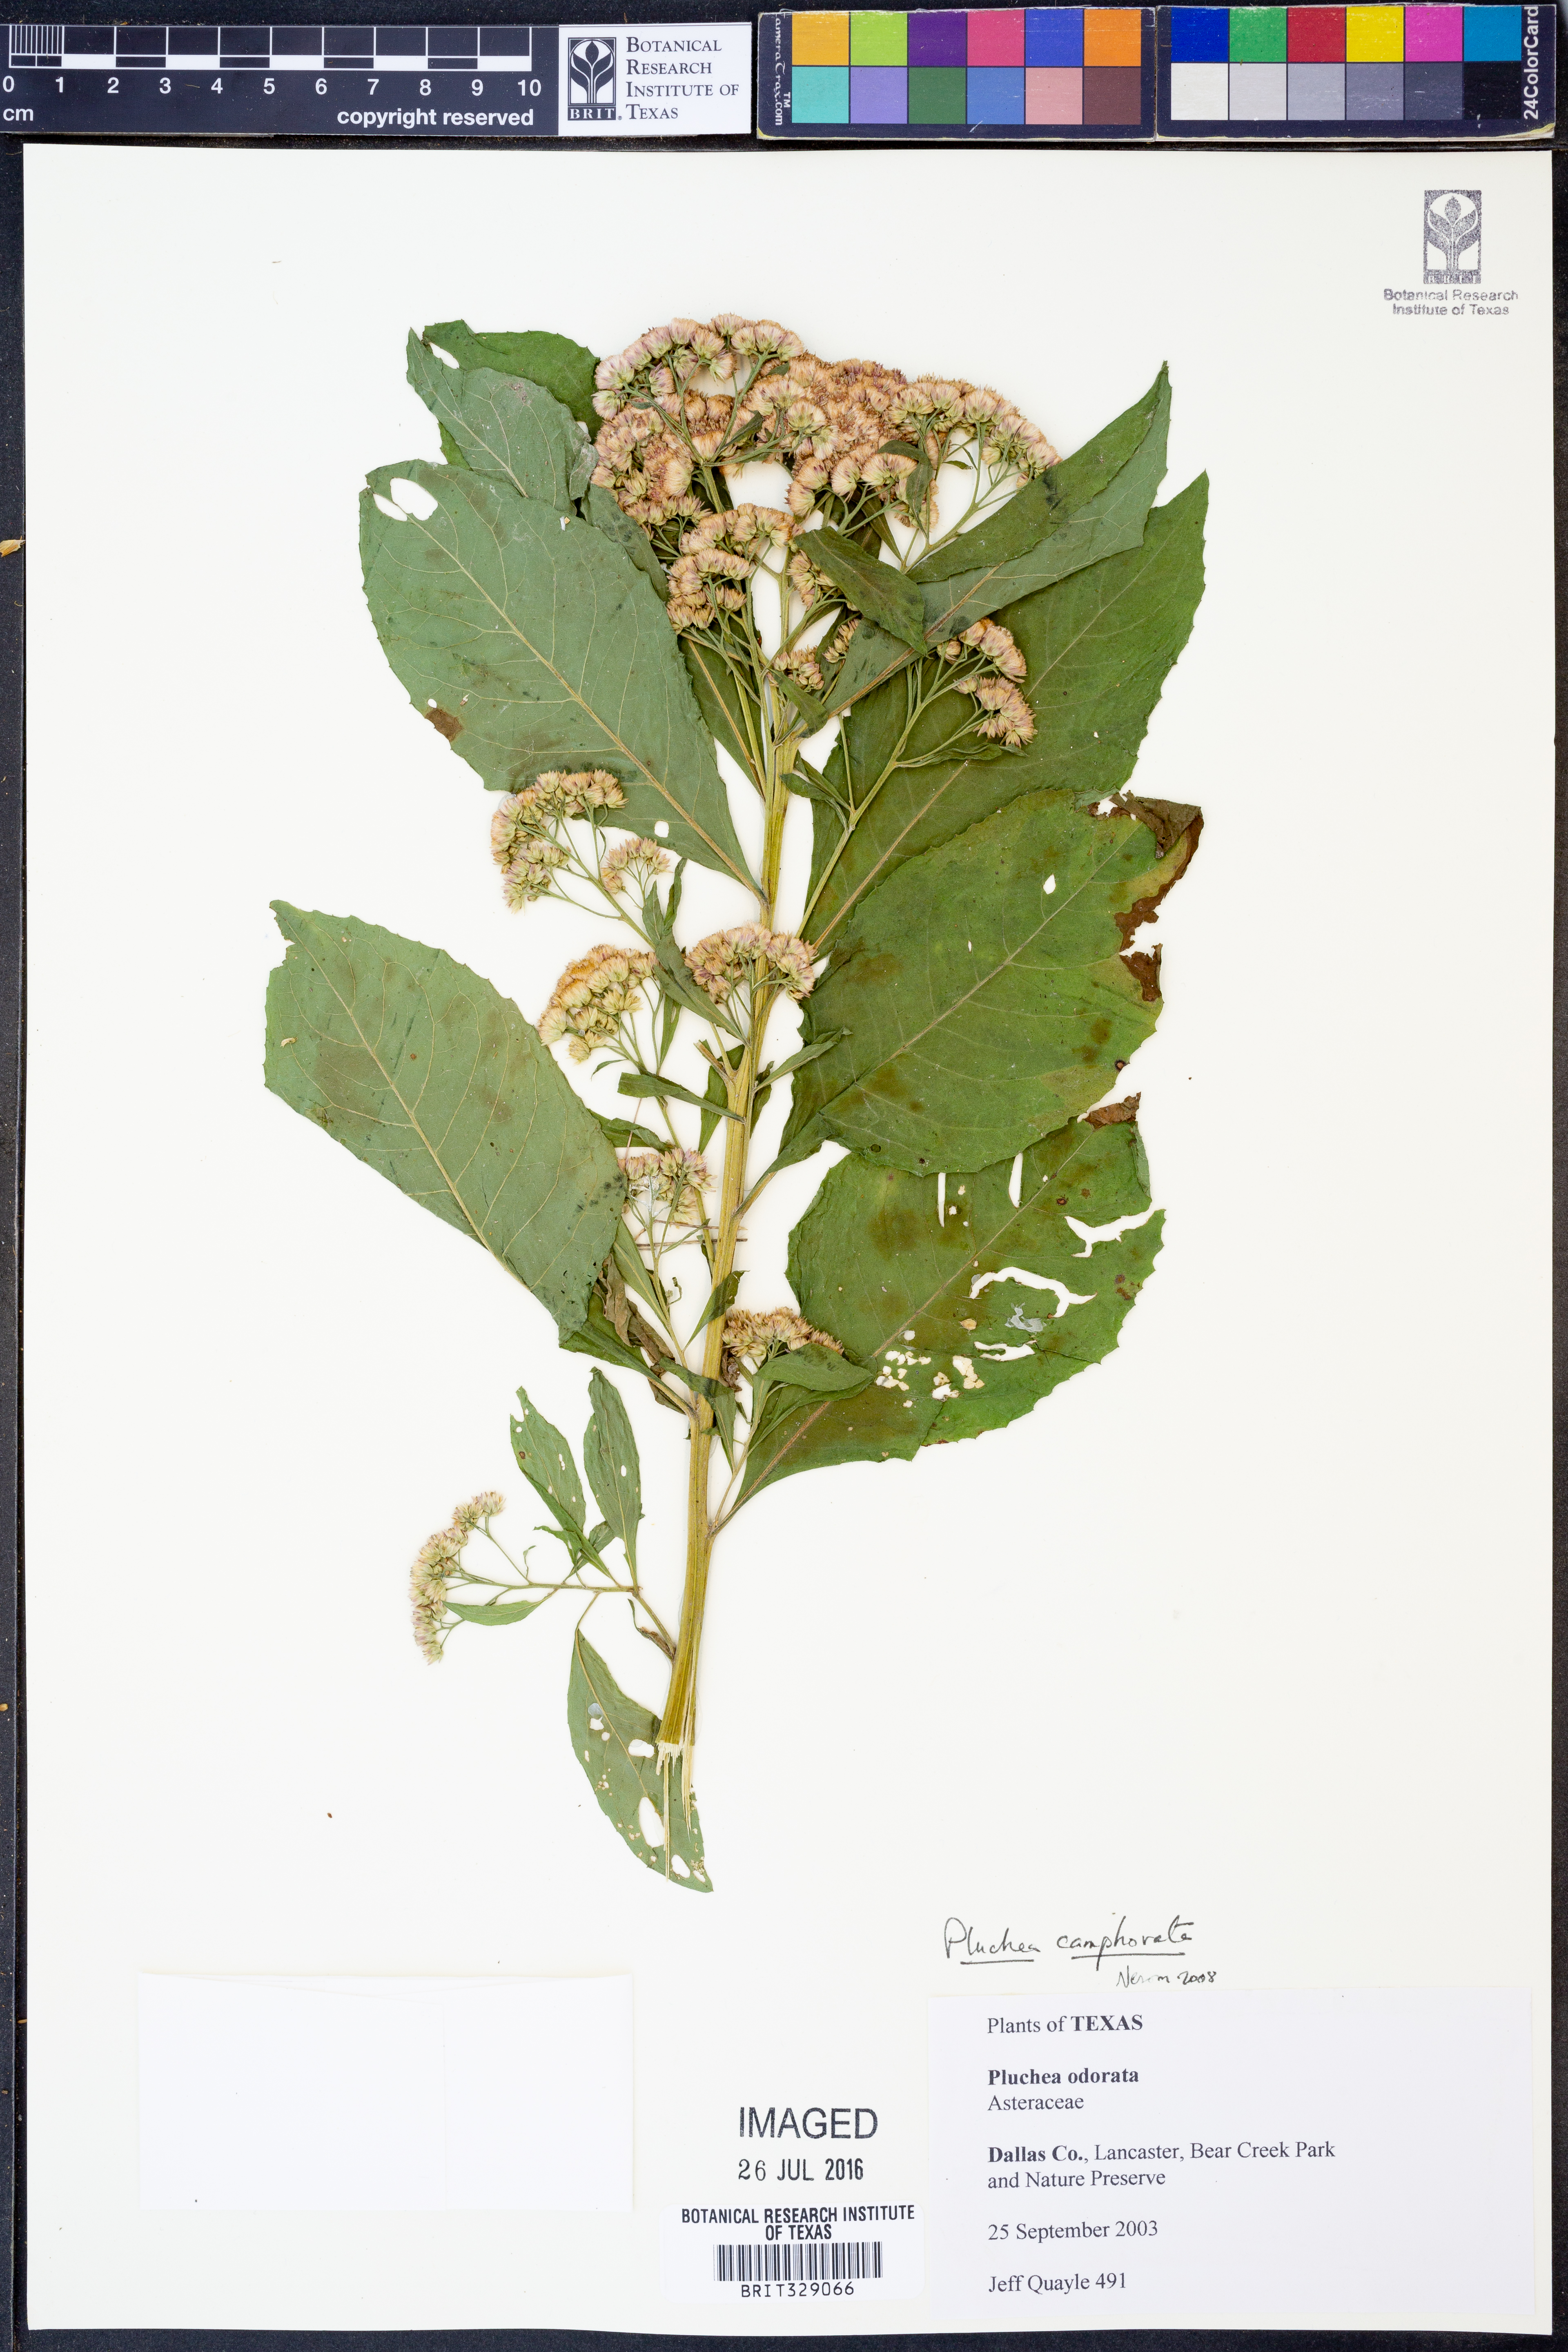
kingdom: Plantae
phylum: Tracheophyta
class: Magnoliopsida
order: Asterales
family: Asteraceae
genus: Pluchea
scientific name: Pluchea camphorata
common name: Camphor pluchea
